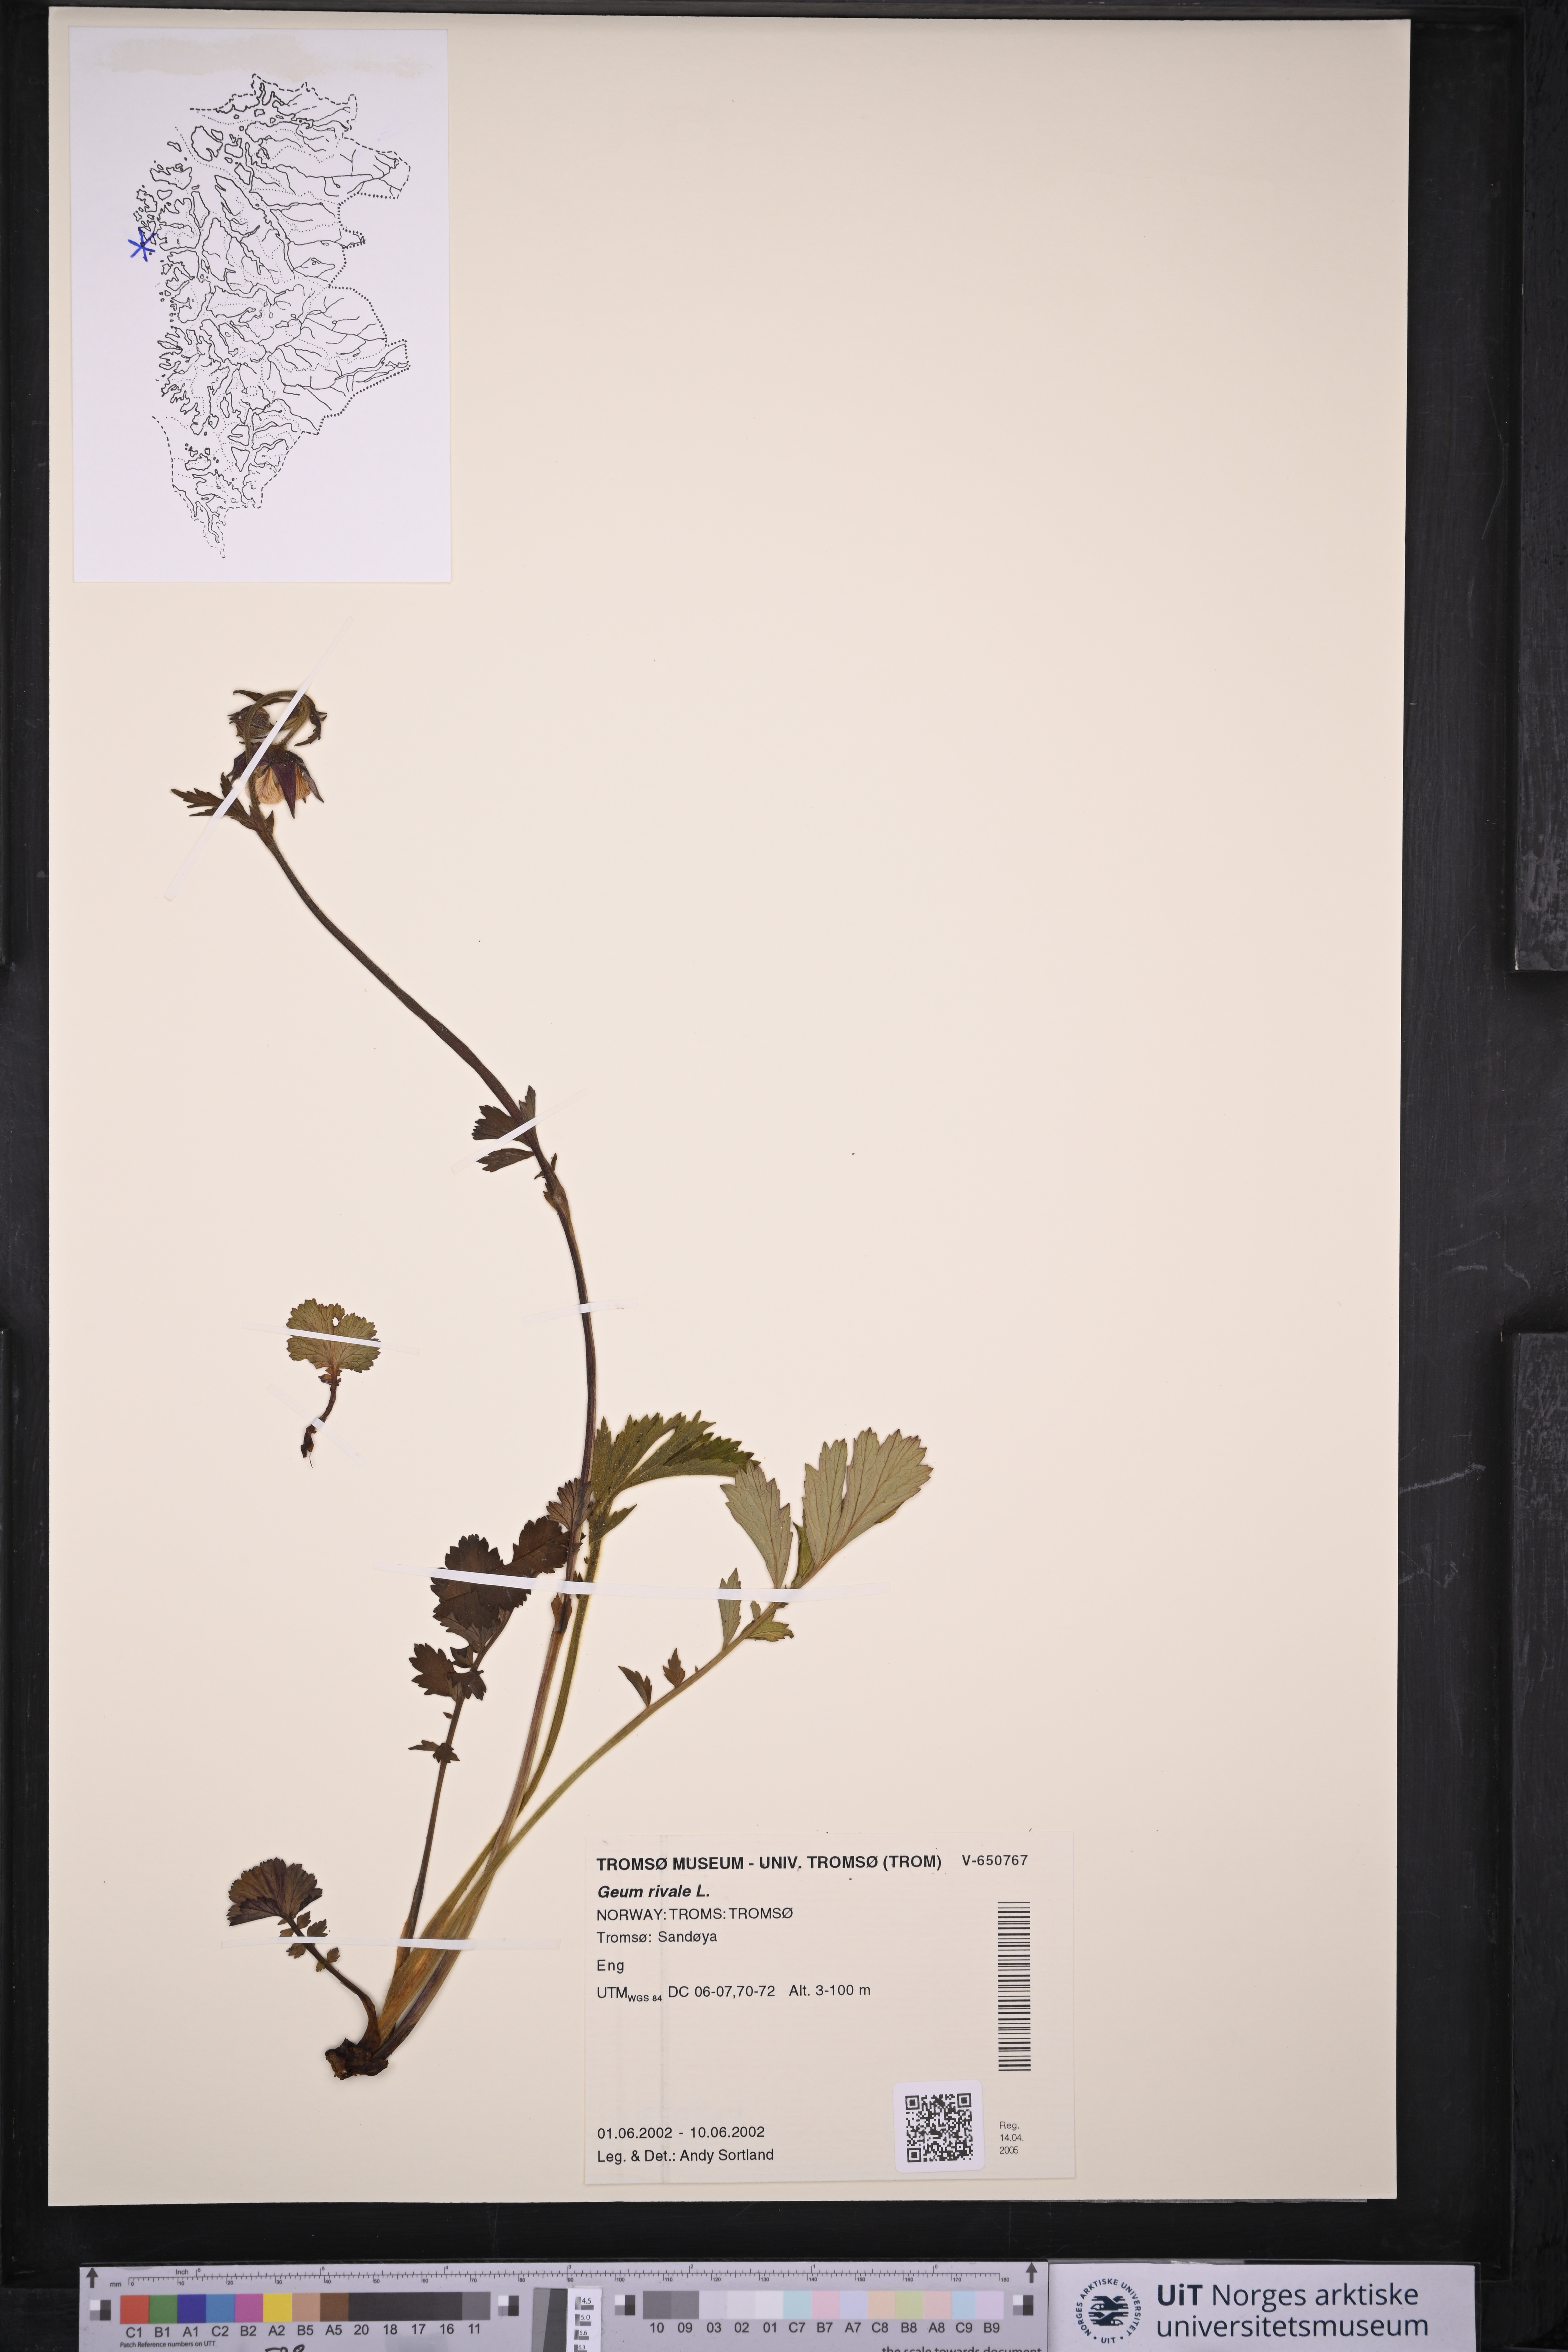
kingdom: Plantae
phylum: Tracheophyta
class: Magnoliopsida
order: Rosales
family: Rosaceae
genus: Geum
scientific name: Geum rivale
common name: Water avens
